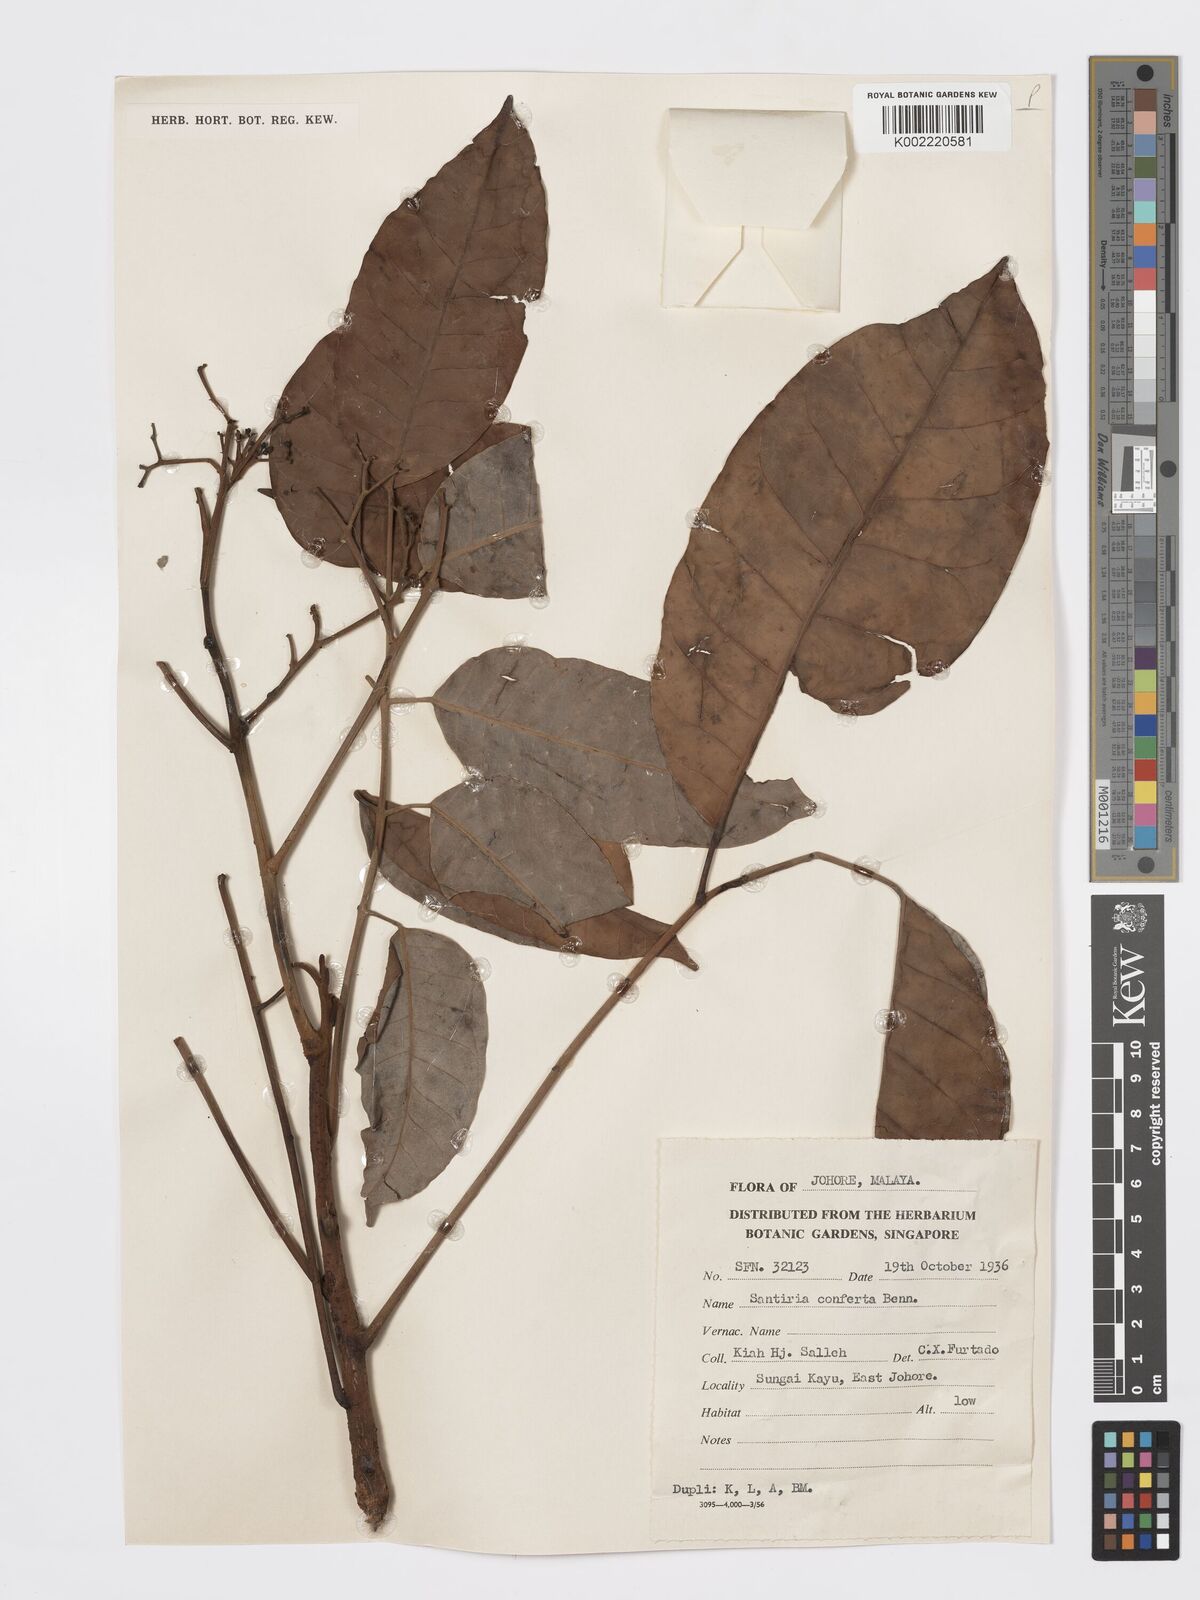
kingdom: Plantae
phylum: Tracheophyta
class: Magnoliopsida
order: Sapindales
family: Burseraceae
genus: Santiria
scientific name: Santiria conferta
